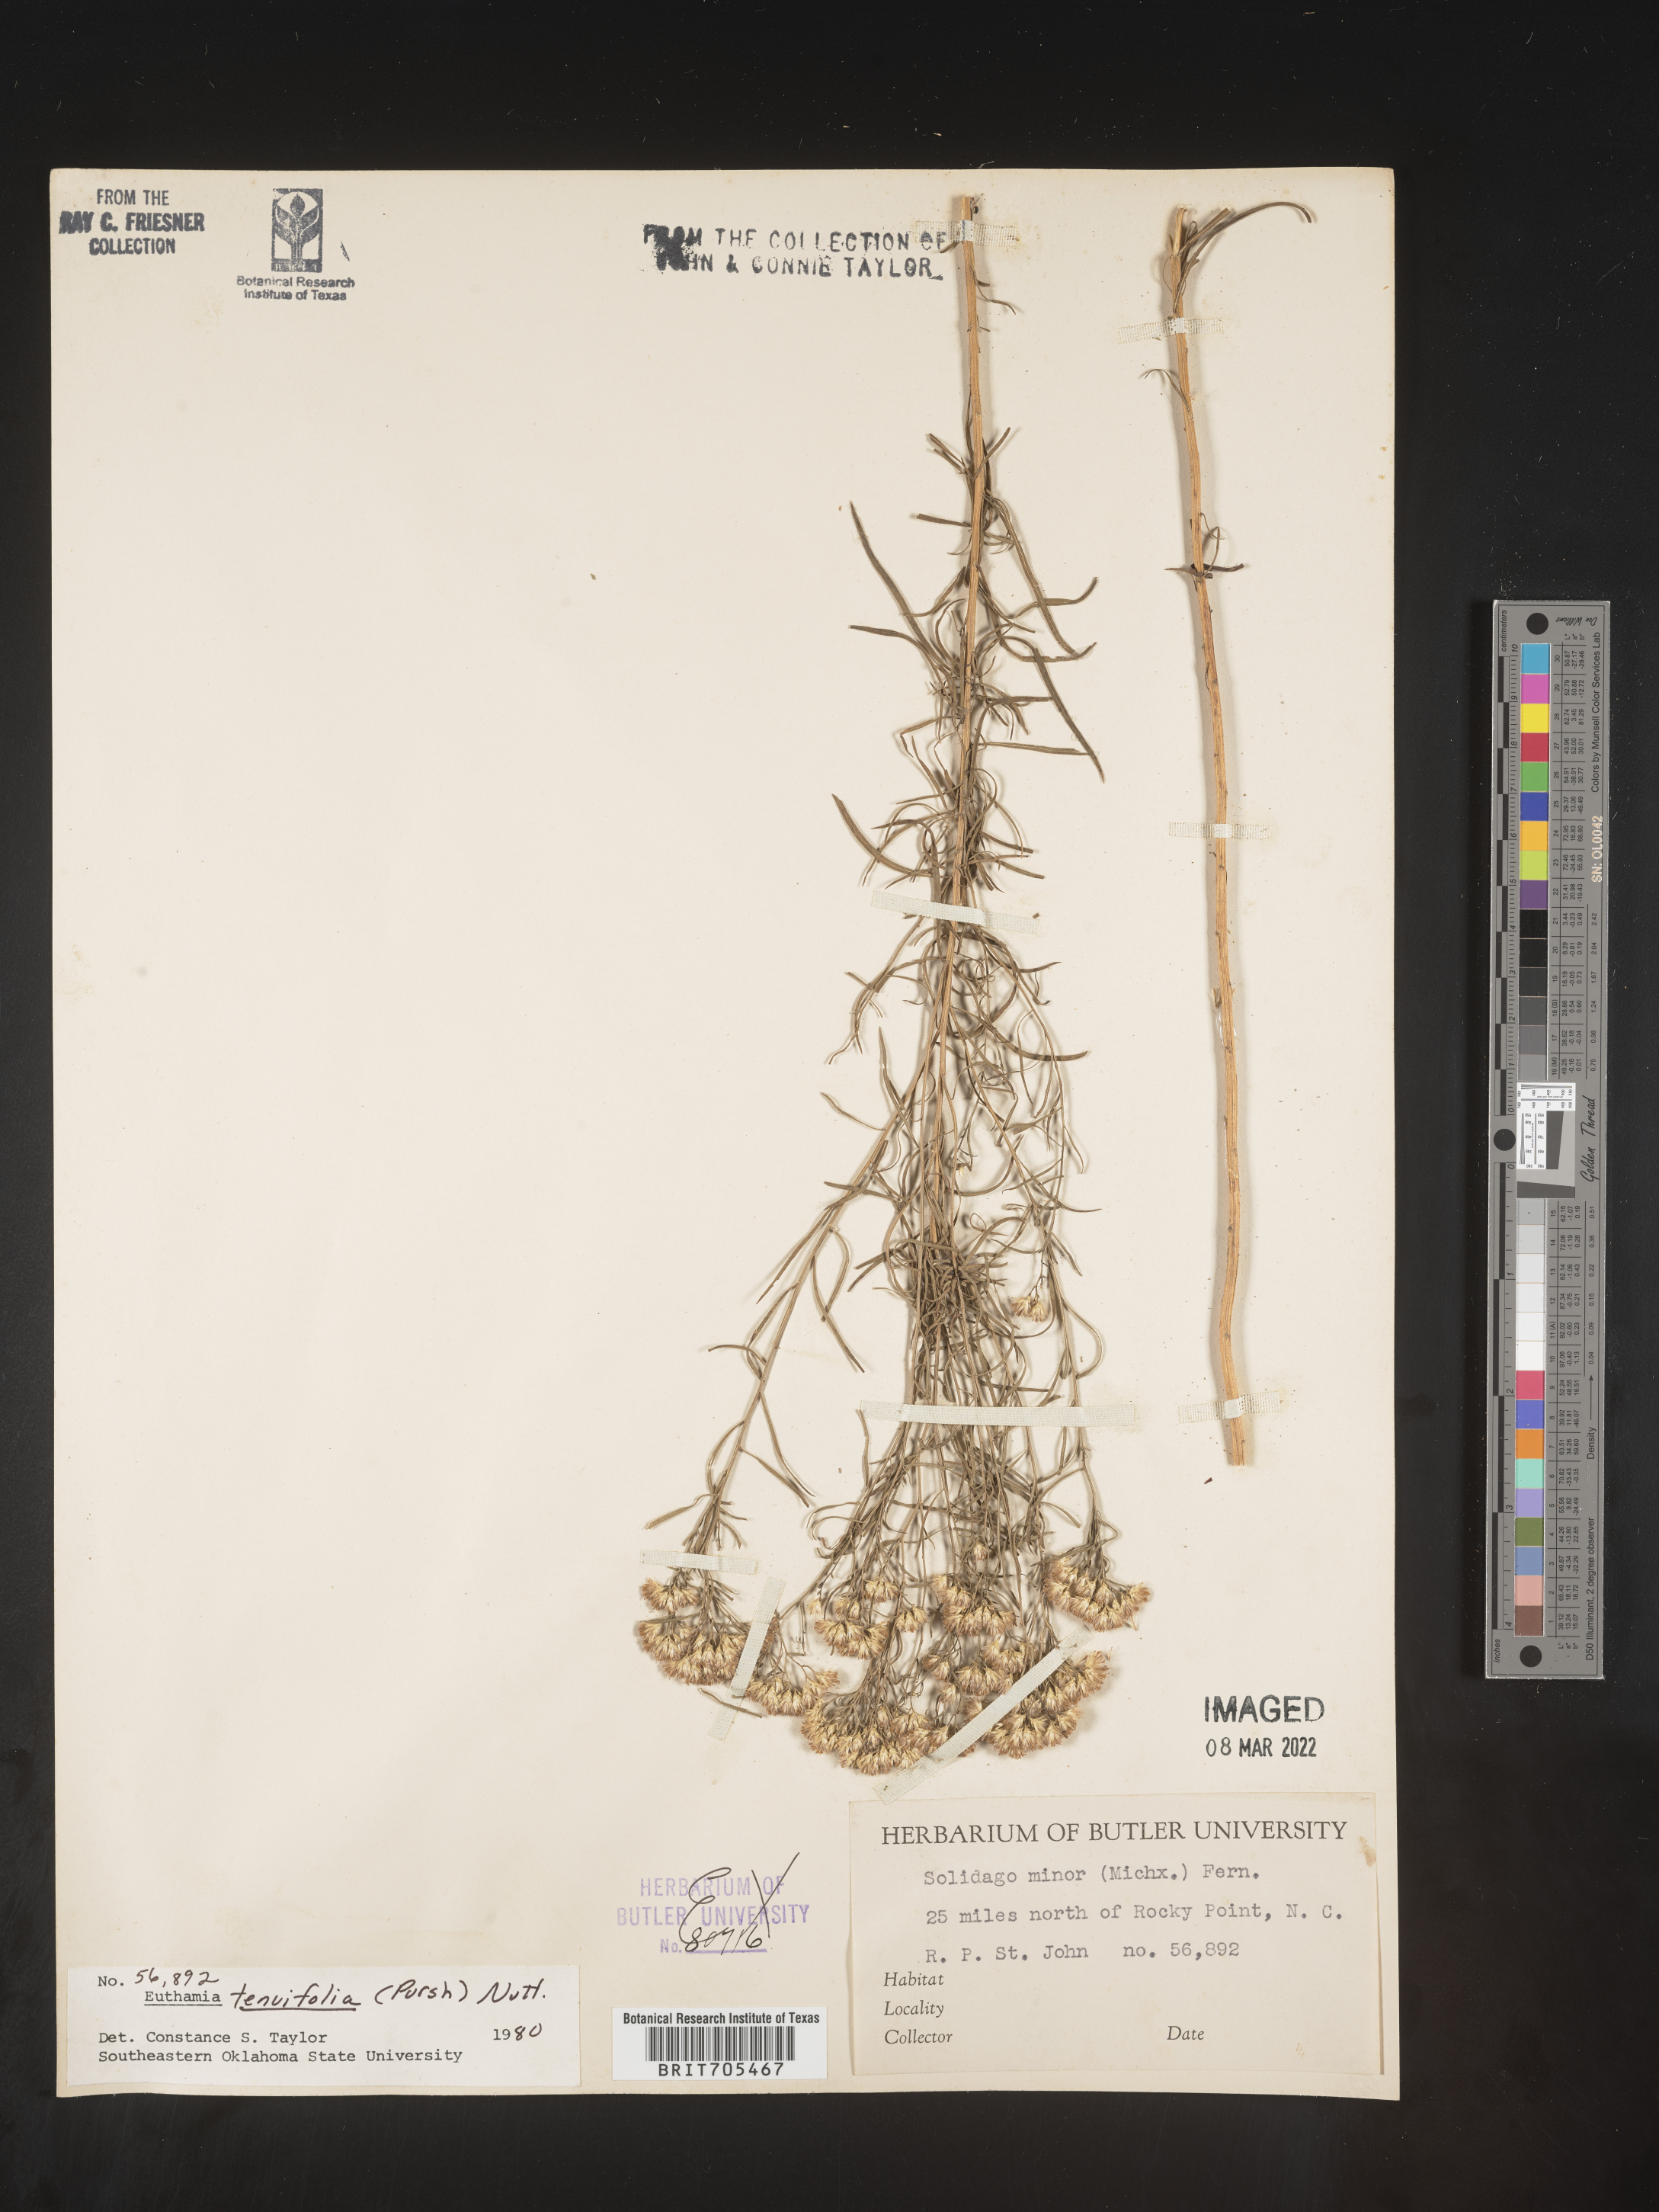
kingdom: Plantae
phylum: Tracheophyta
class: Magnoliopsida
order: Asterales
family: Asteraceae
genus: Euthamia
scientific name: Euthamia caroliniana
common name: Coastal plain goldentop
